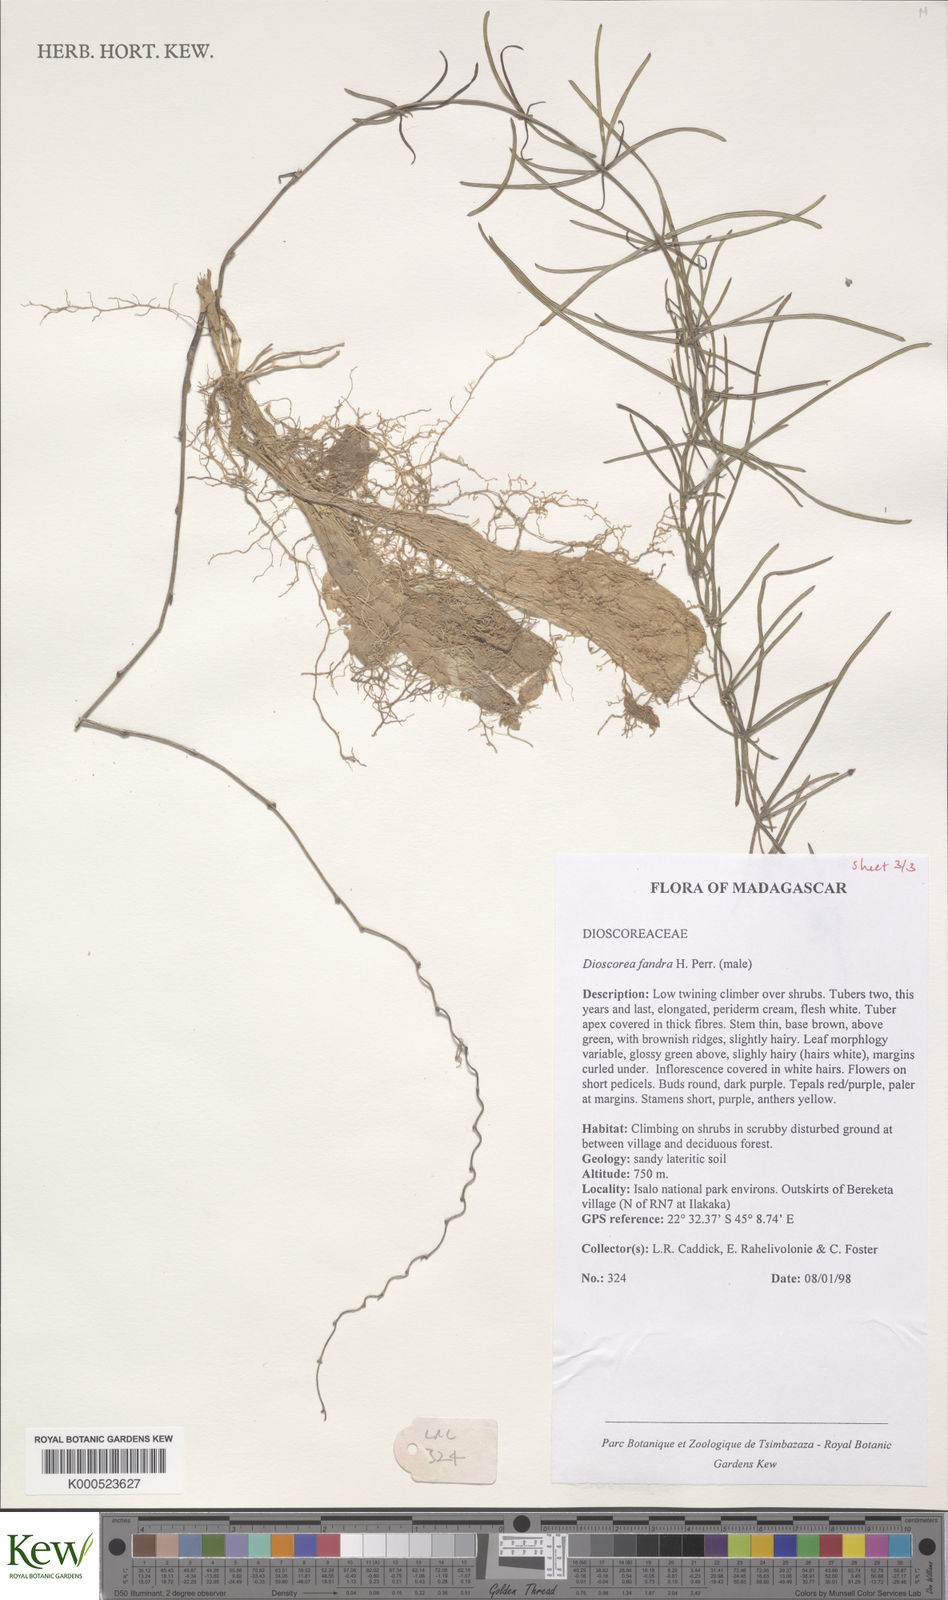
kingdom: Plantae
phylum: Tracheophyta
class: Liliopsida
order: Dioscoreales
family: Dioscoreaceae
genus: Dioscorea
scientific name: Dioscorea fandra
